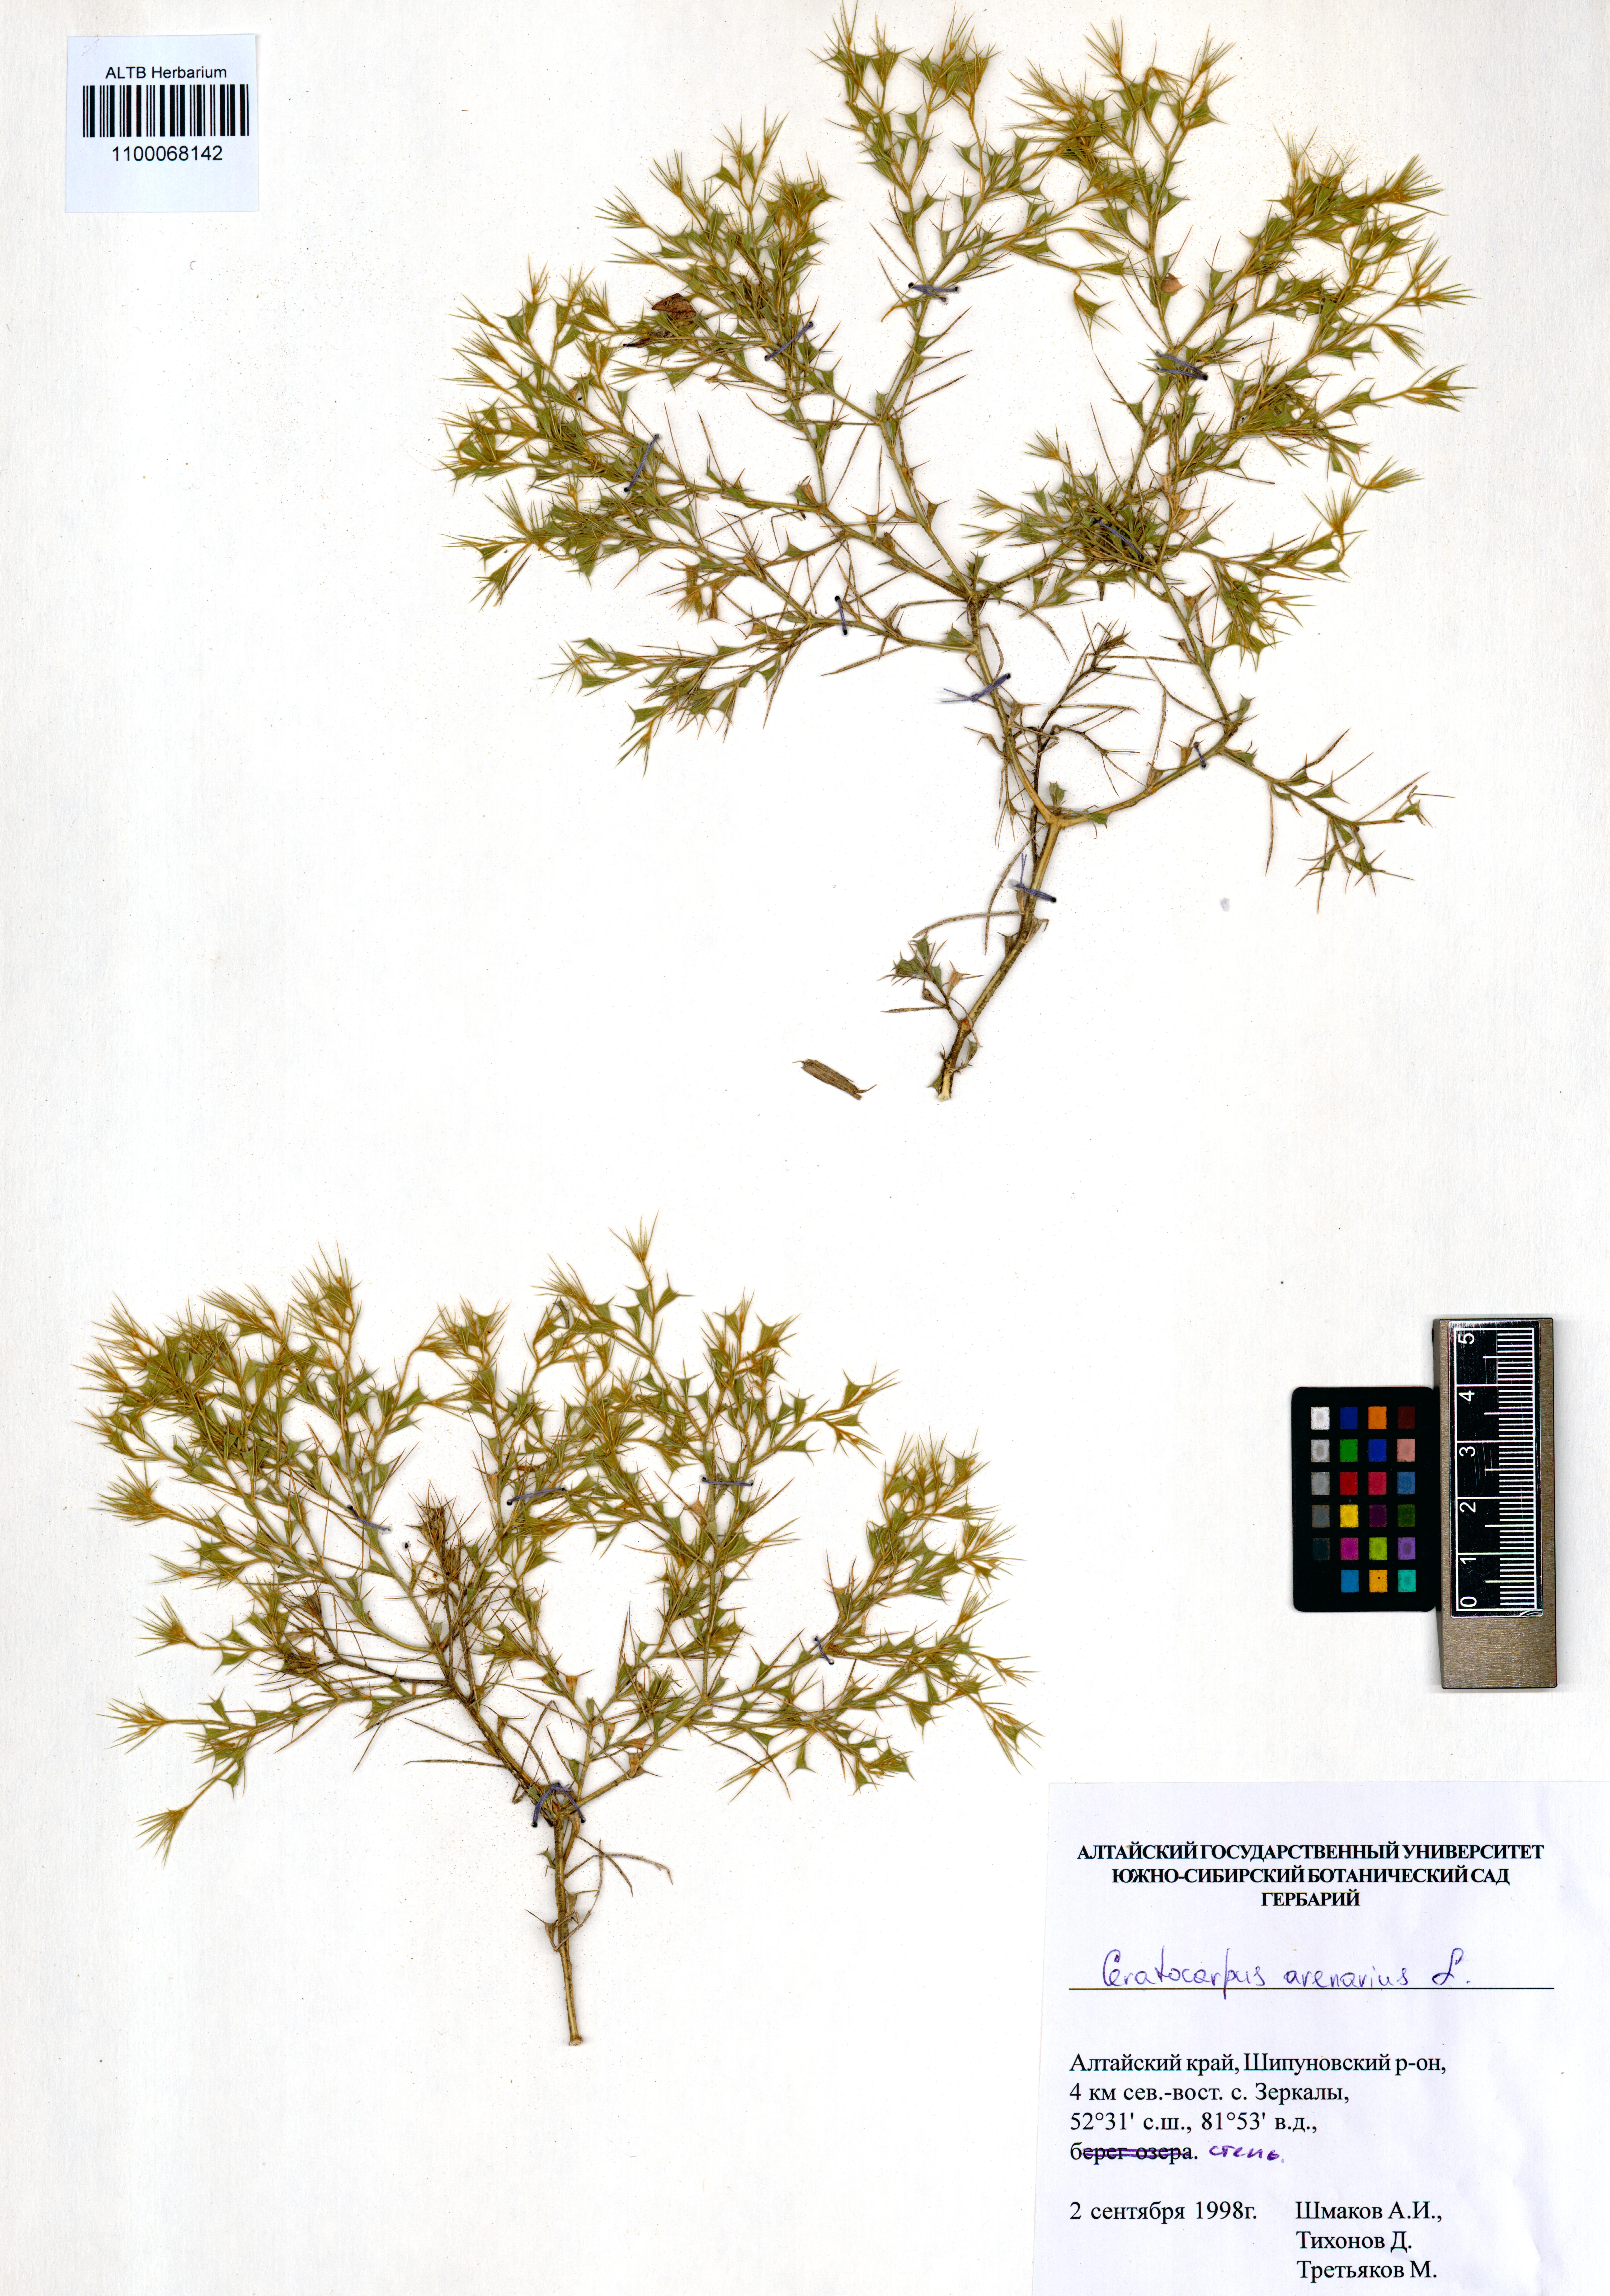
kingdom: Plantae
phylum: Tracheophyta
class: Magnoliopsida
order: Caryophyllales
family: Amaranthaceae
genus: Ceratocarpus
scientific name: Ceratocarpus arenarius
